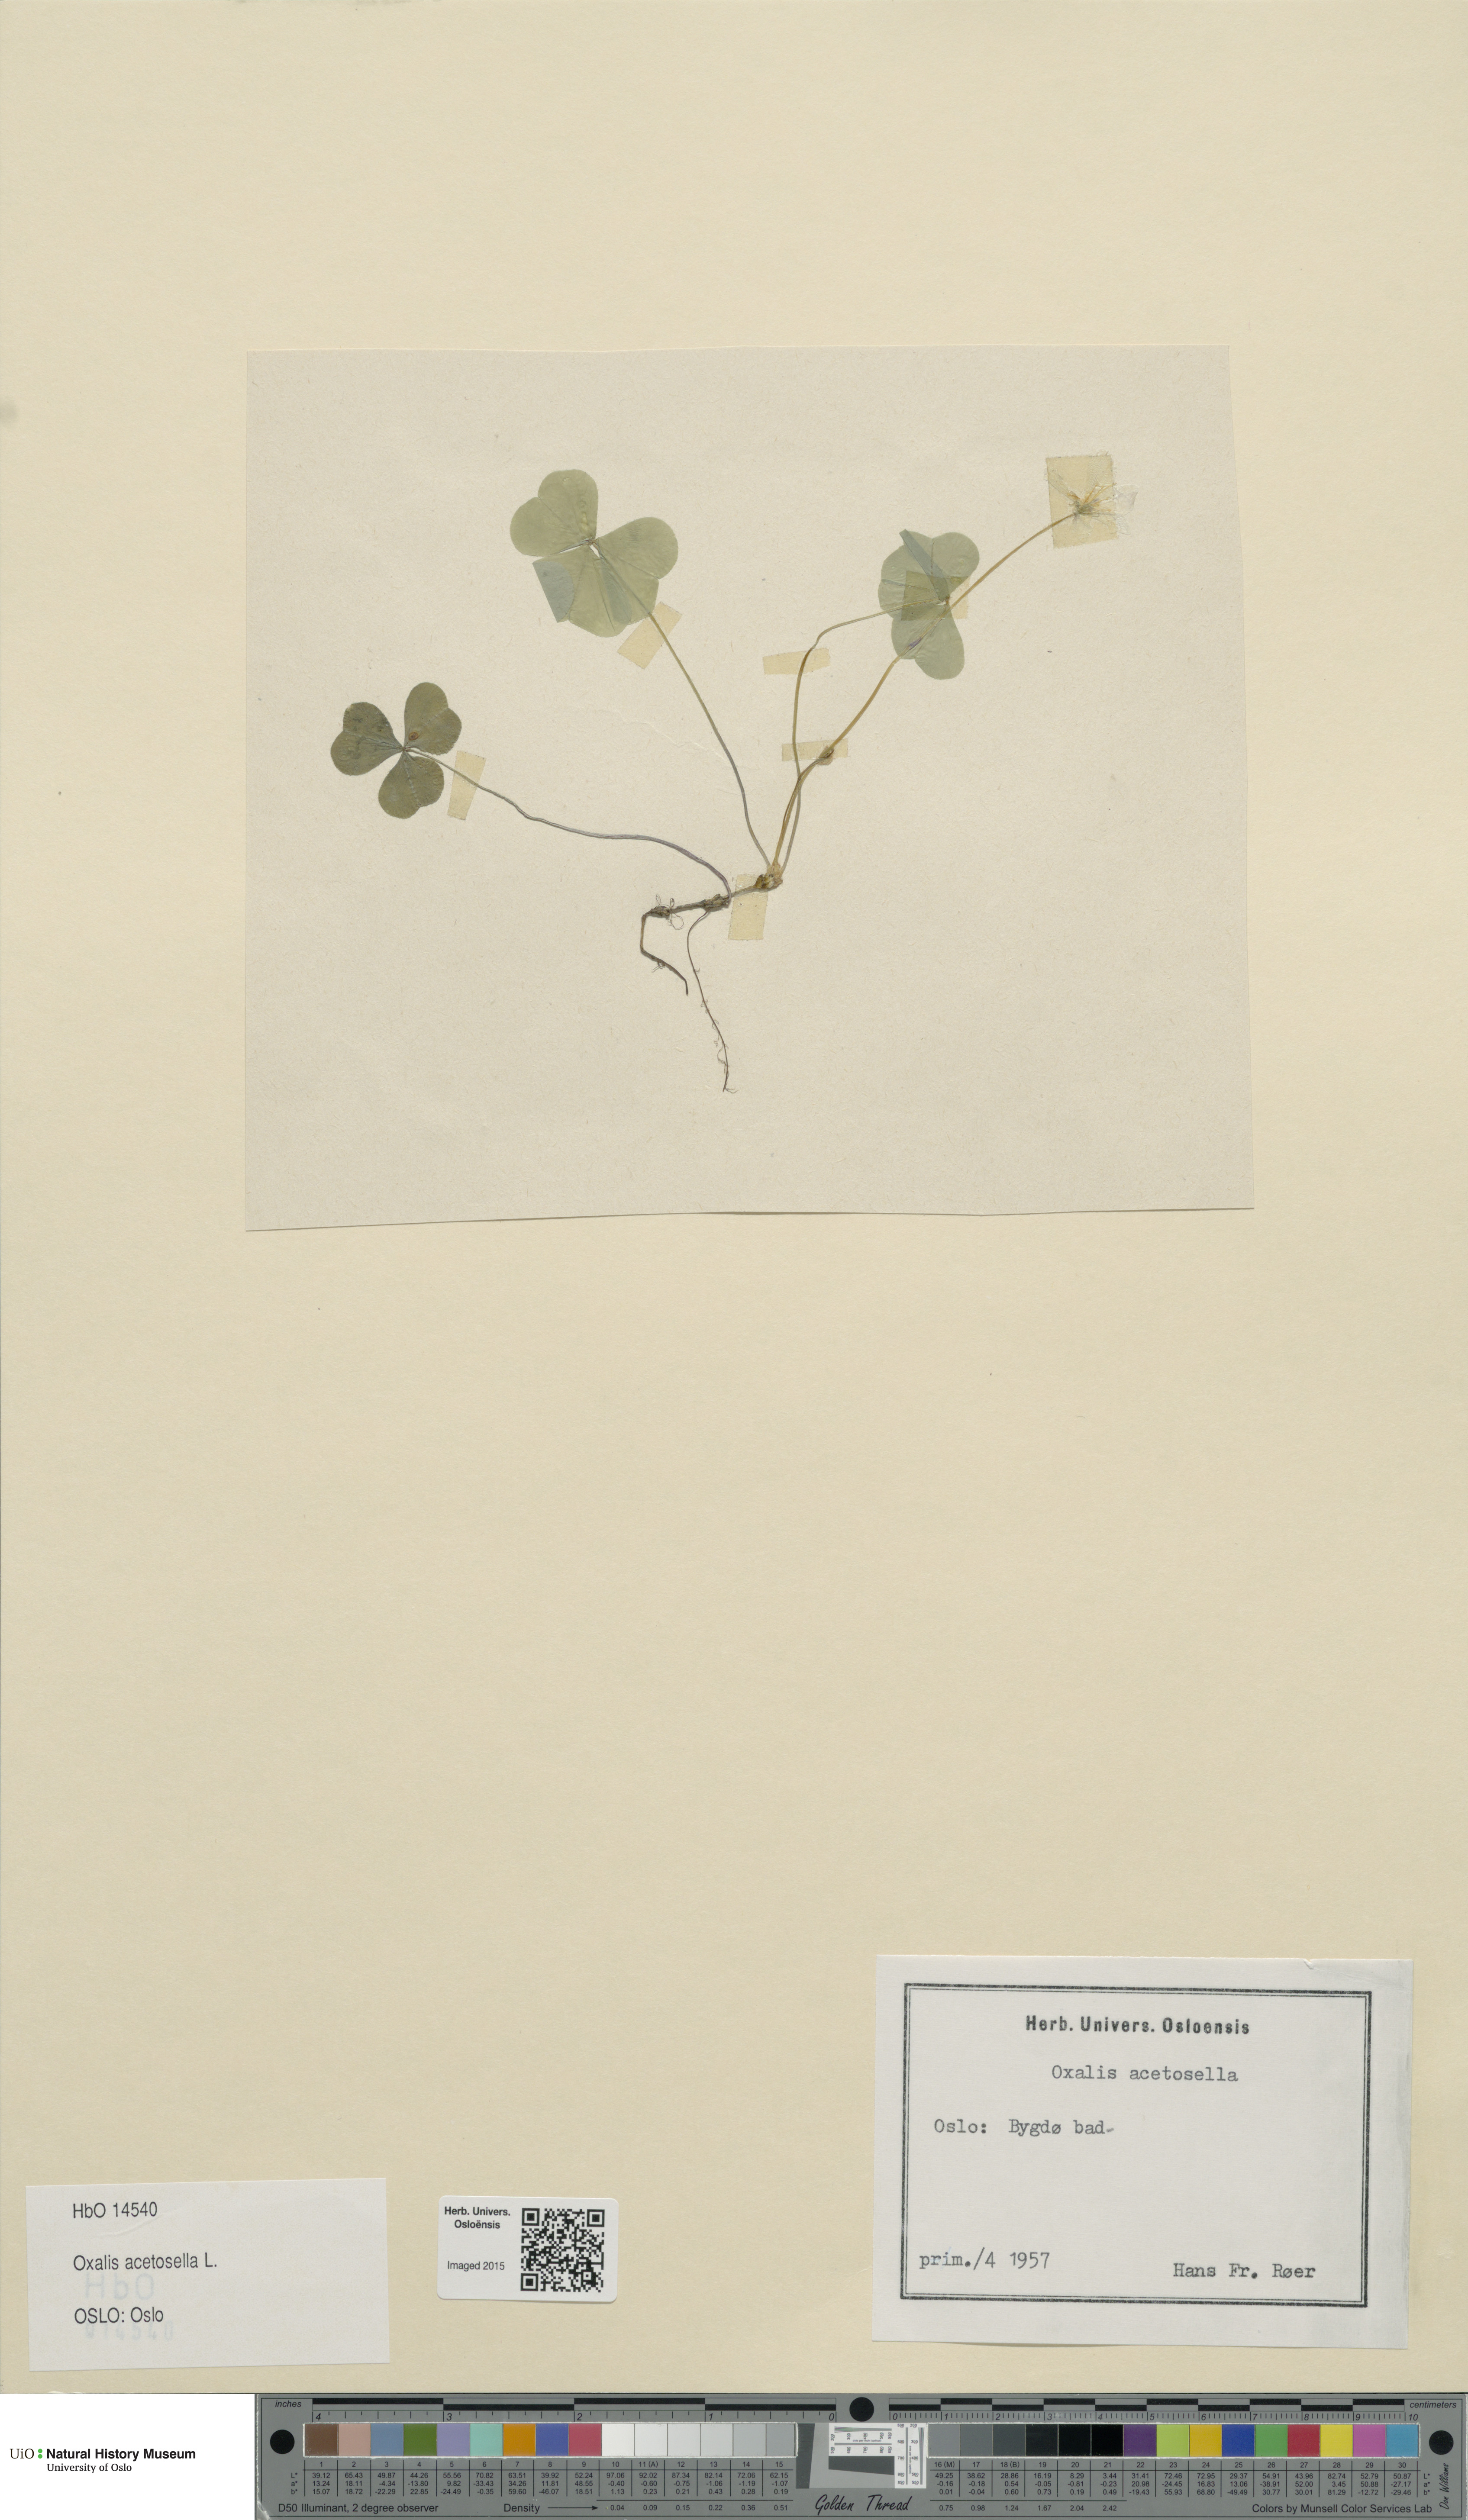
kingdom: Plantae
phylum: Tracheophyta
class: Magnoliopsida
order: Oxalidales
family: Oxalidaceae
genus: Oxalis
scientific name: Oxalis acetosella
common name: Wood-sorrel
